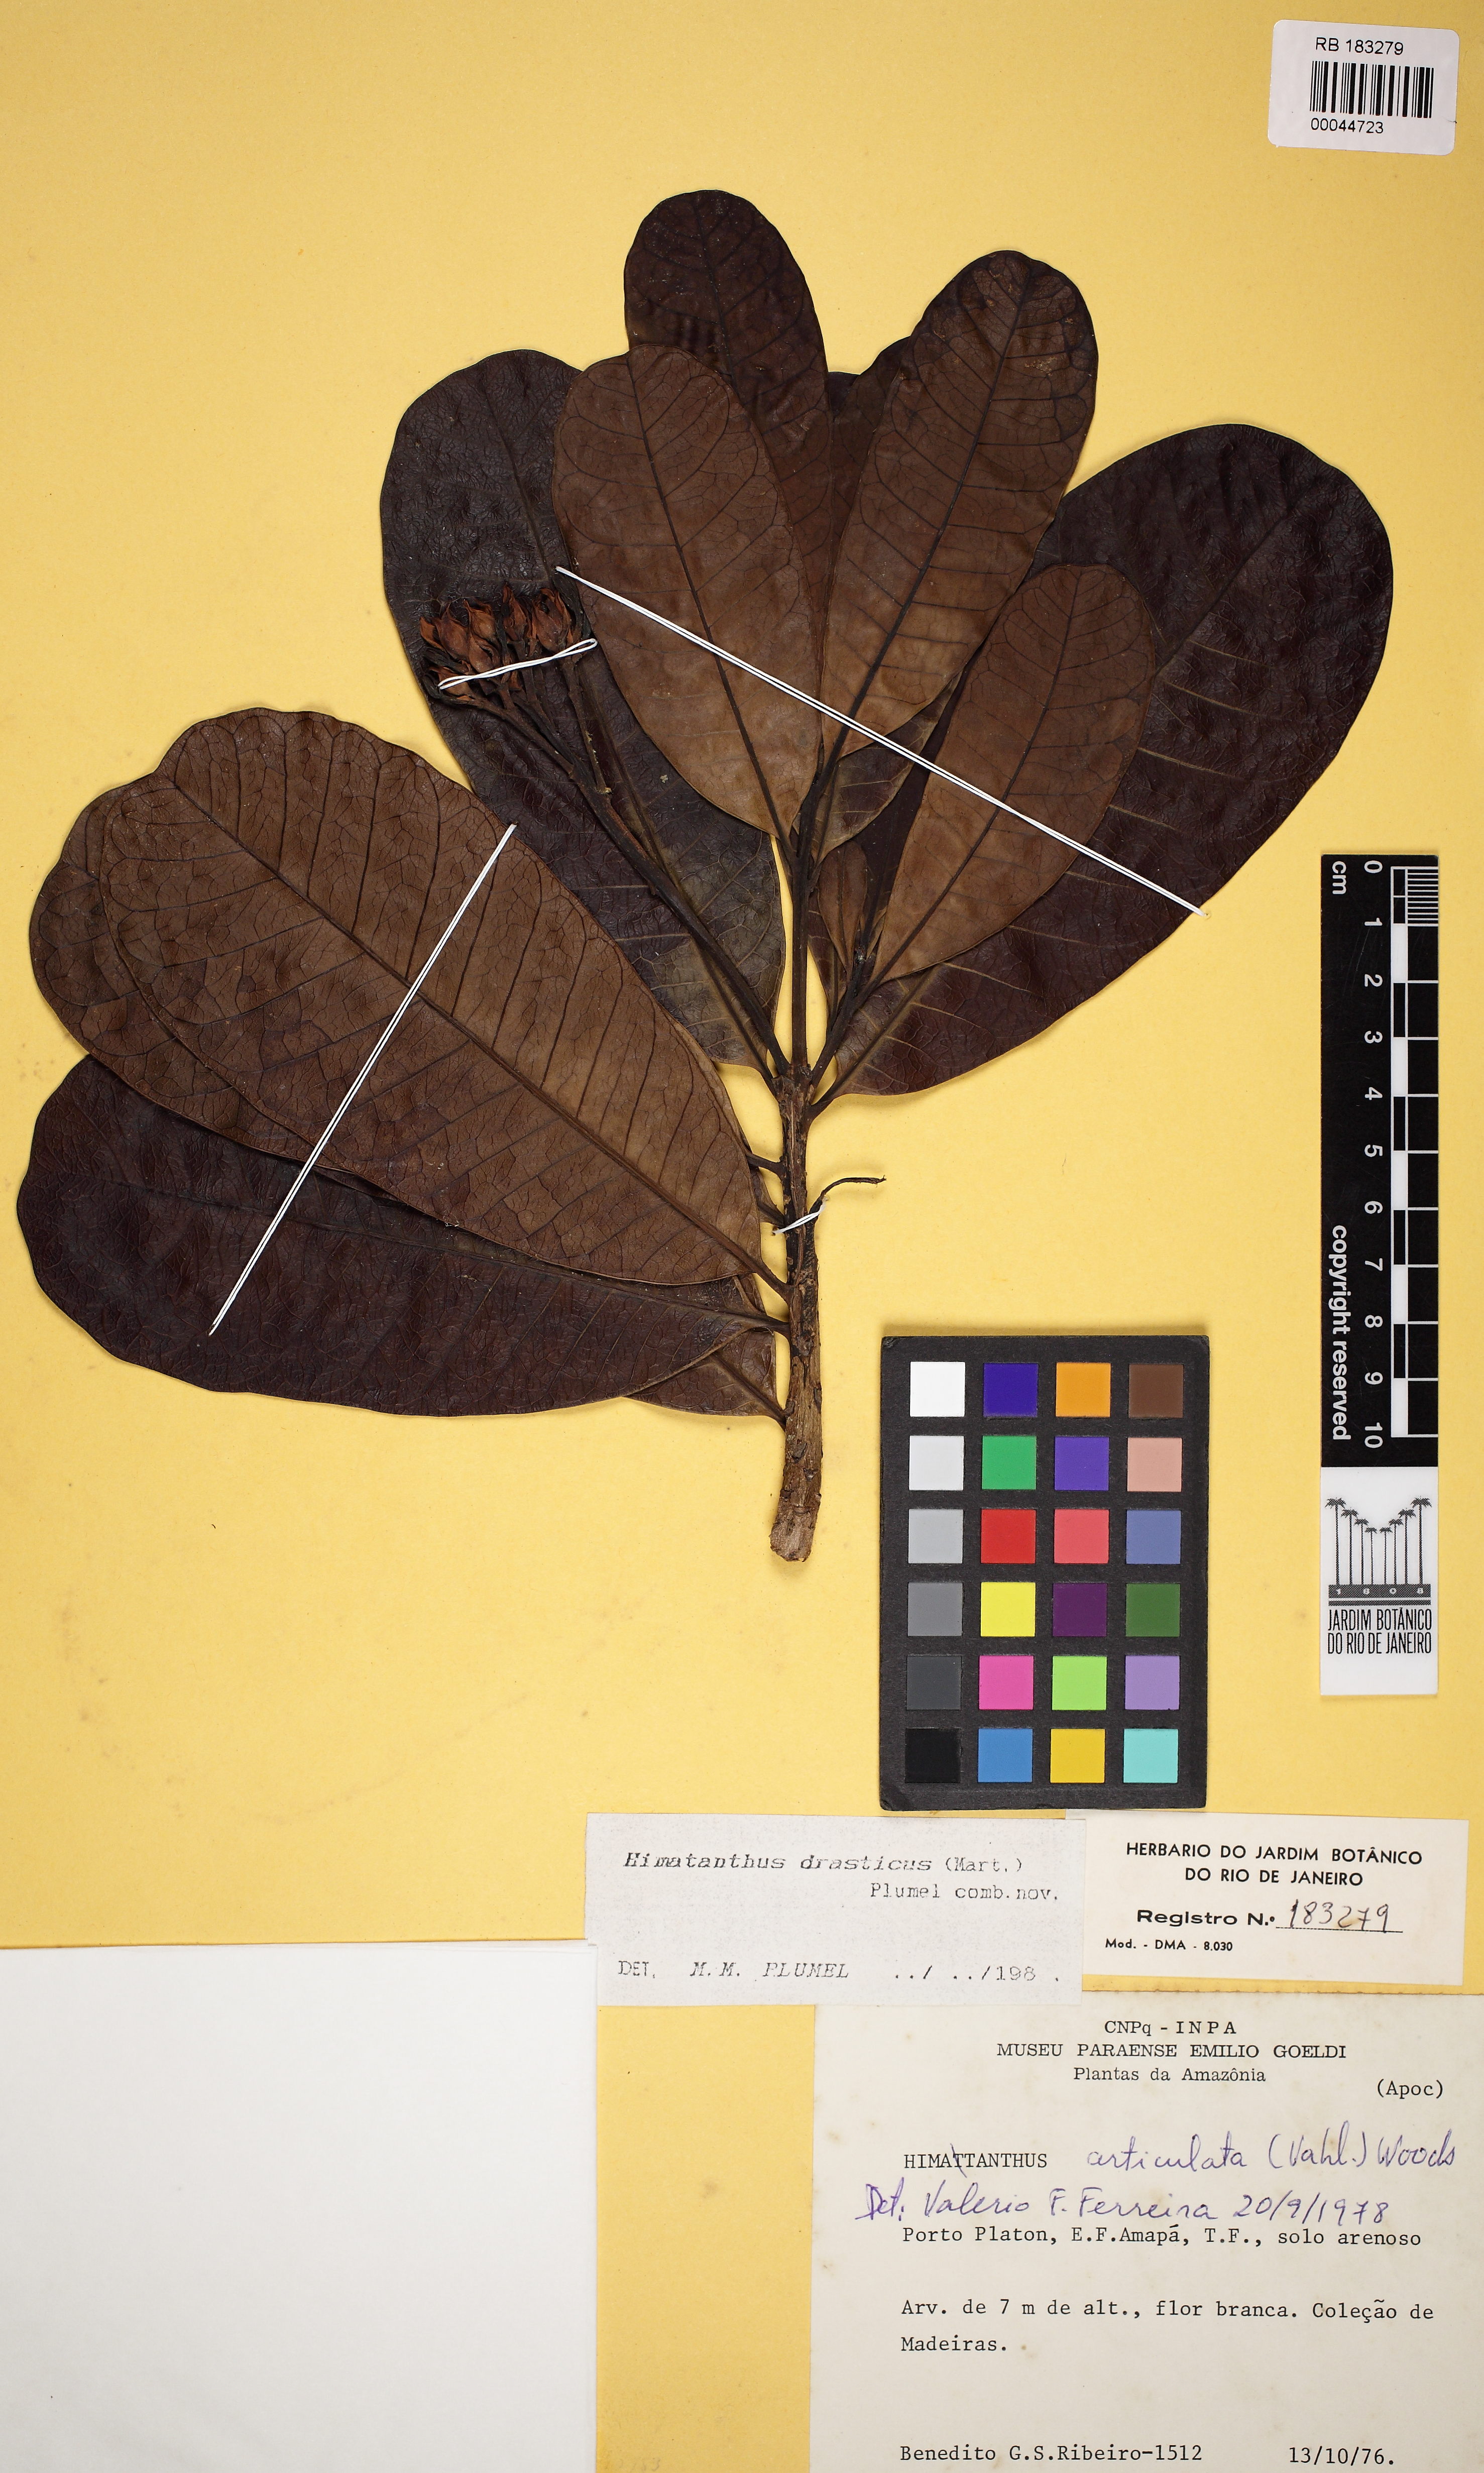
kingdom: Plantae
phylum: Tracheophyta
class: Magnoliopsida
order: Gentianales
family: Apocynaceae
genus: Himatanthus
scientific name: Himatanthus drasticus
